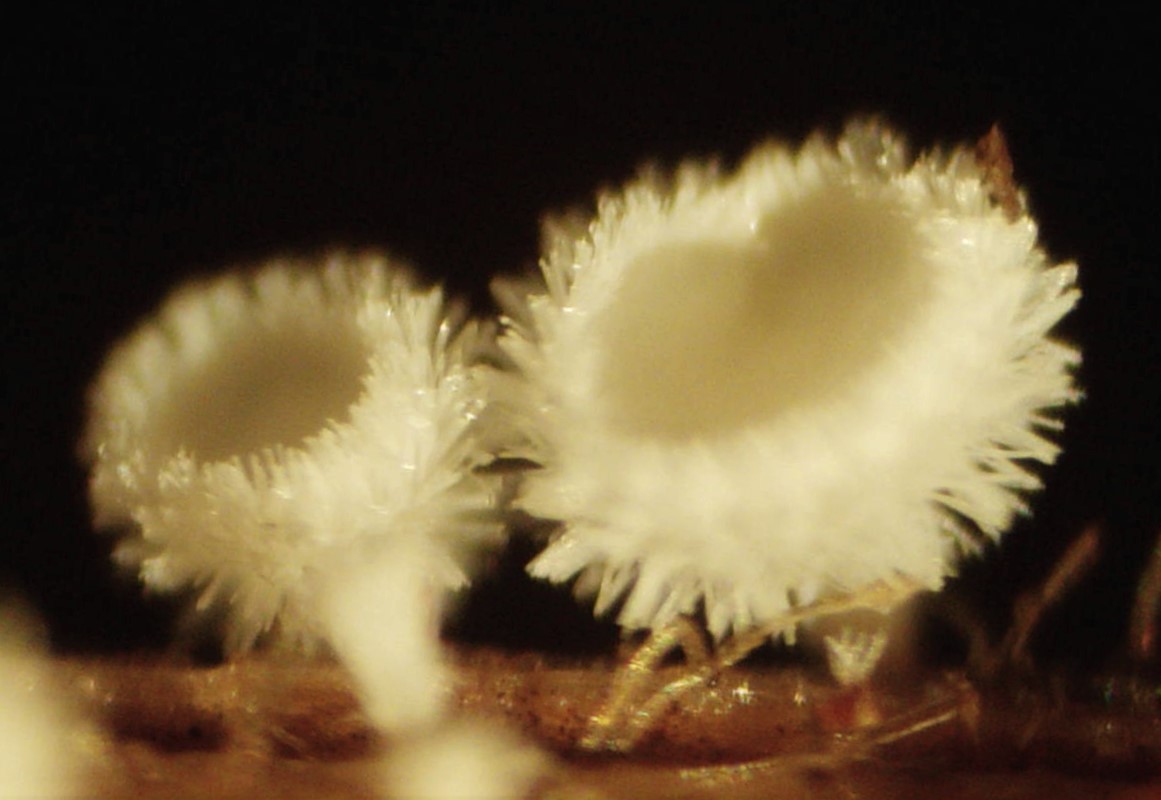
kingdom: Fungi
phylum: Ascomycota
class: Leotiomycetes
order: Helotiales
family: Lachnaceae
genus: Lachnum
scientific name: Lachnum virgineum
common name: jomfru-frynseskive
